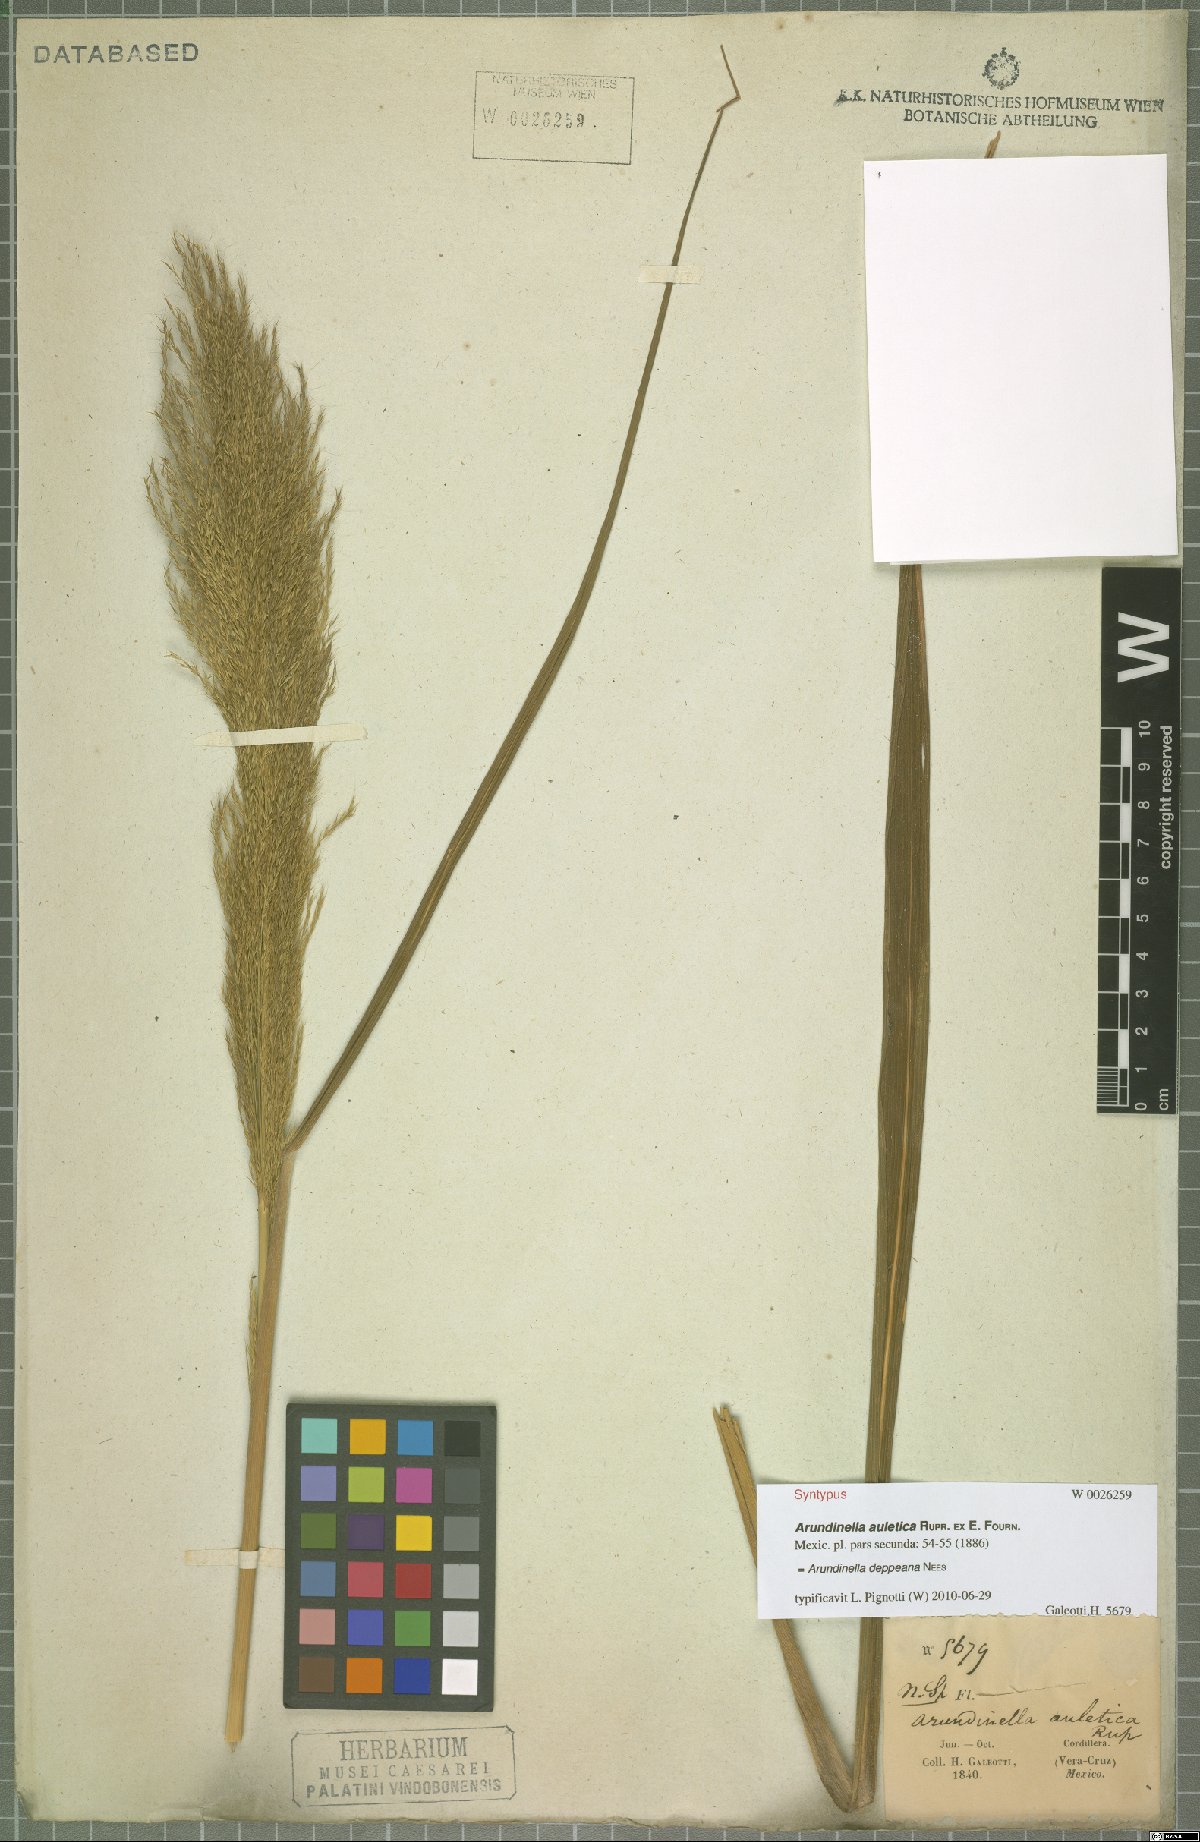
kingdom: Plantae
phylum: Tracheophyta
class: Liliopsida
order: Poales
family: Poaceae
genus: Arundinella
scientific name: Arundinella deppeana
